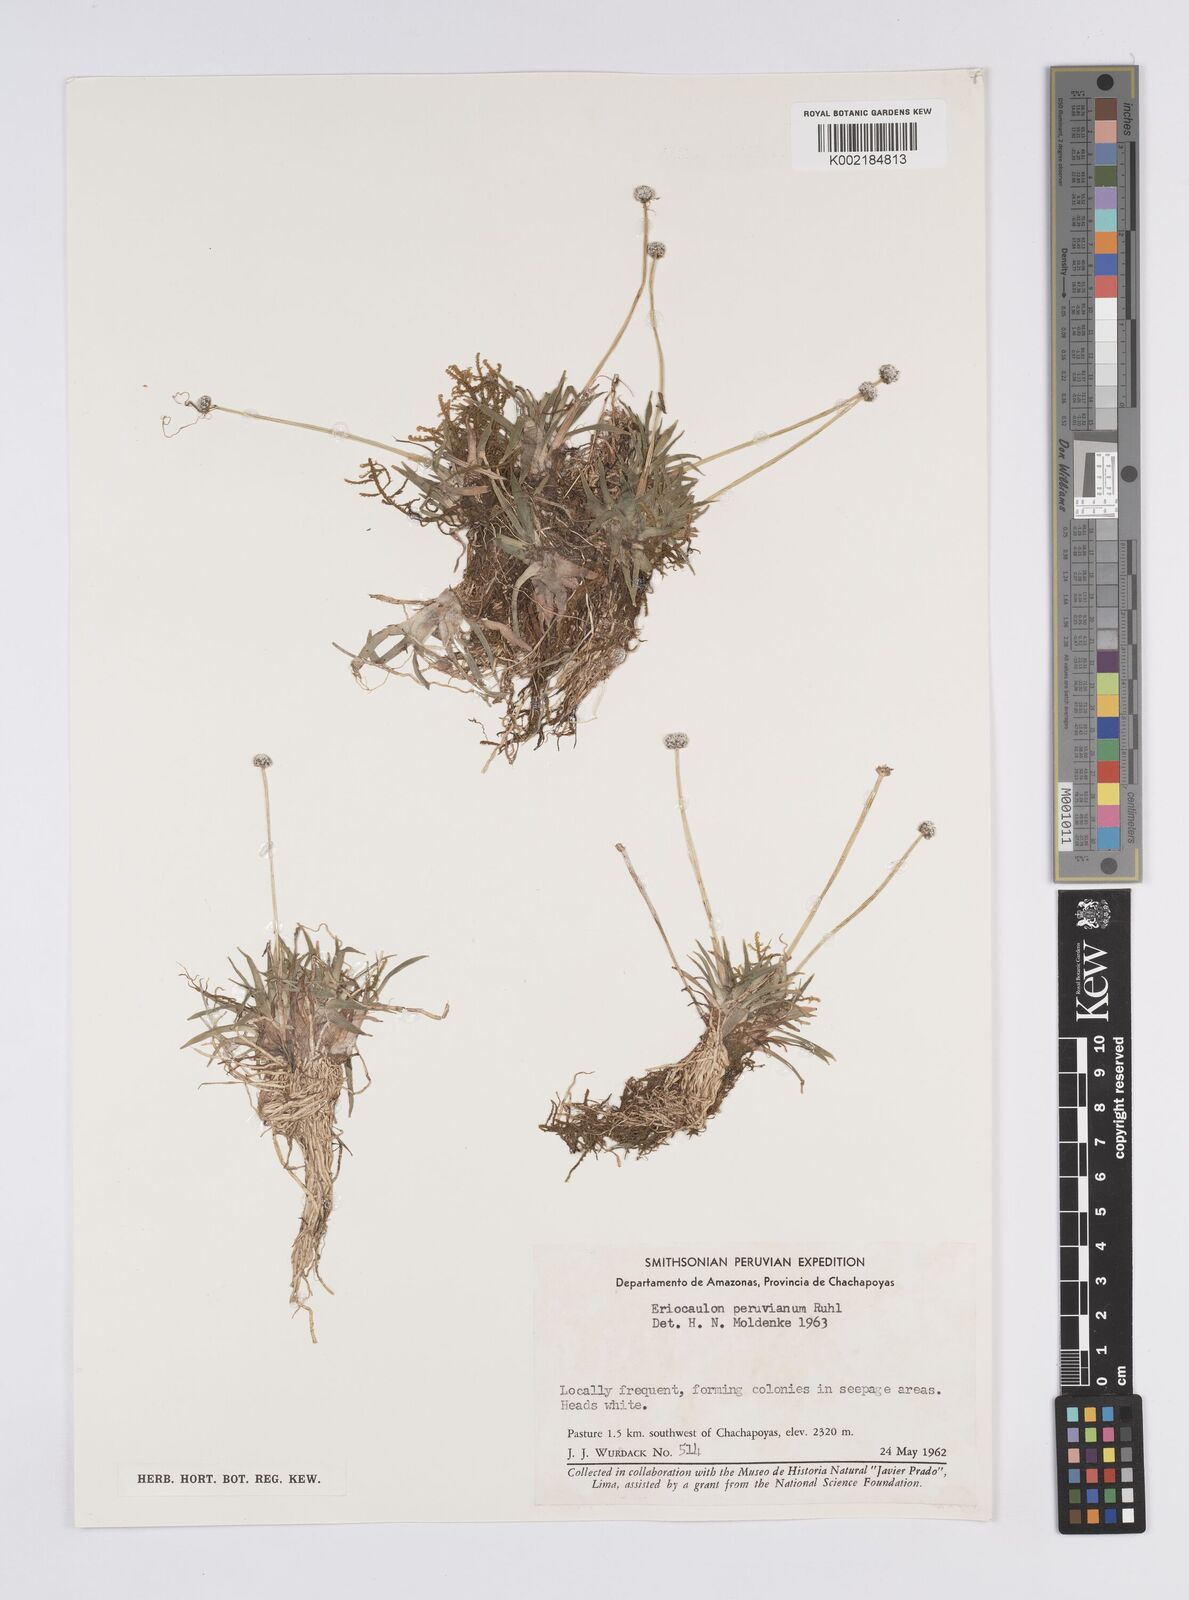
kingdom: Plantae
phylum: Tracheophyta
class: Liliopsida
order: Poales
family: Eriocaulaceae
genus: Eriocaulon
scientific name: Eriocaulon peruvianum
